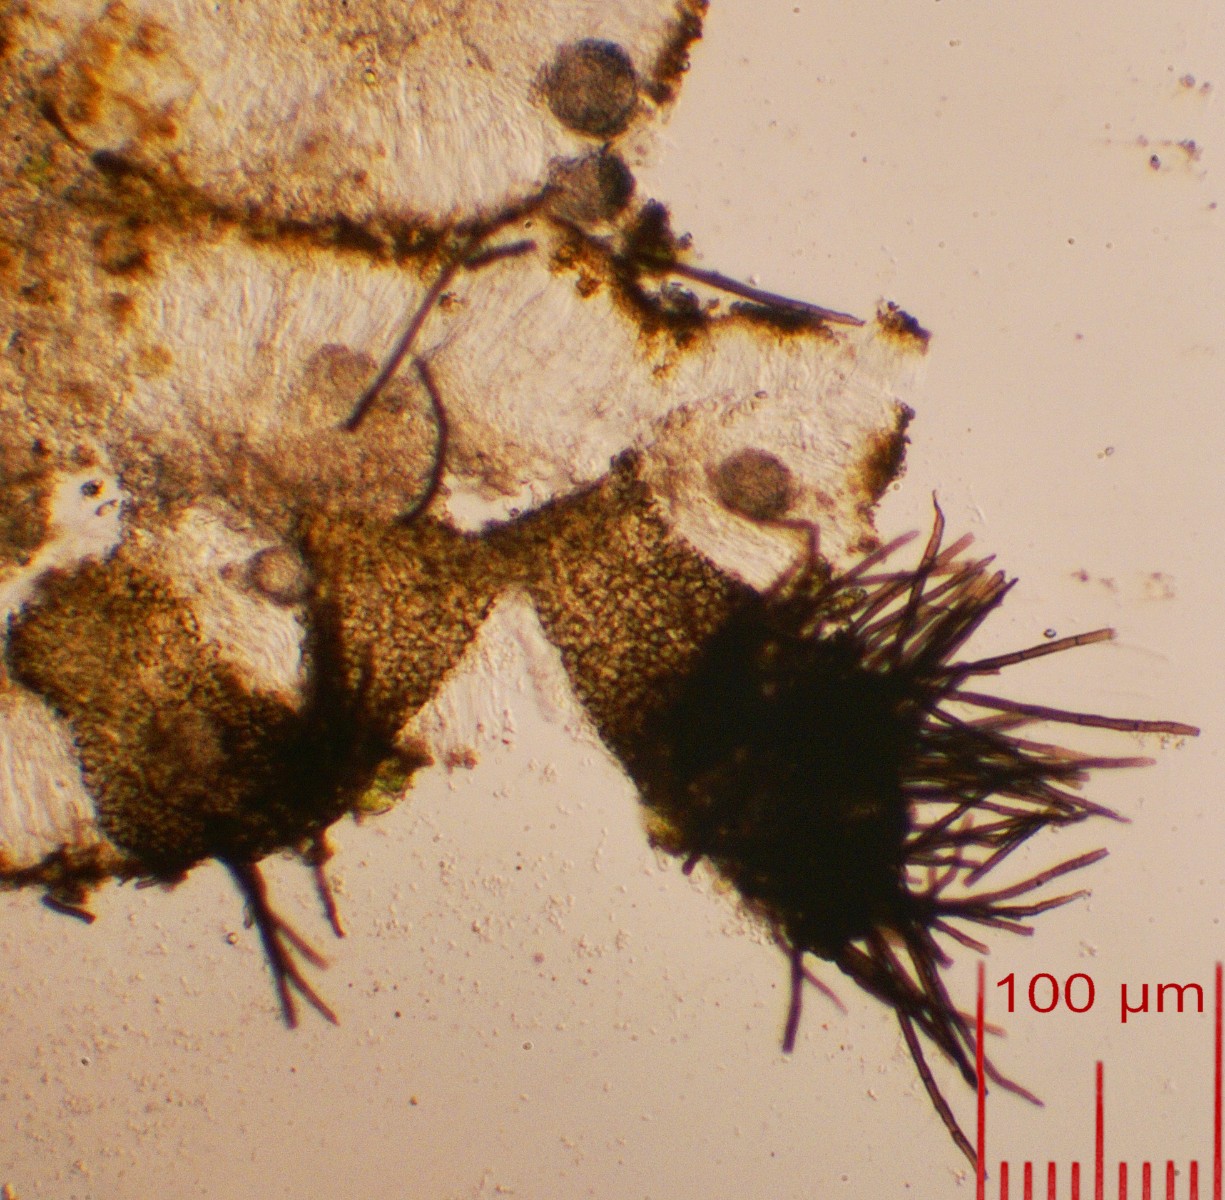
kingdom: Fungi
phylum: Ascomycota
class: Dothideomycetes
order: Pleosporales
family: Cucurbitariaceae
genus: Pyrenochaeta
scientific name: Pyrenochaeta xanthoriae
